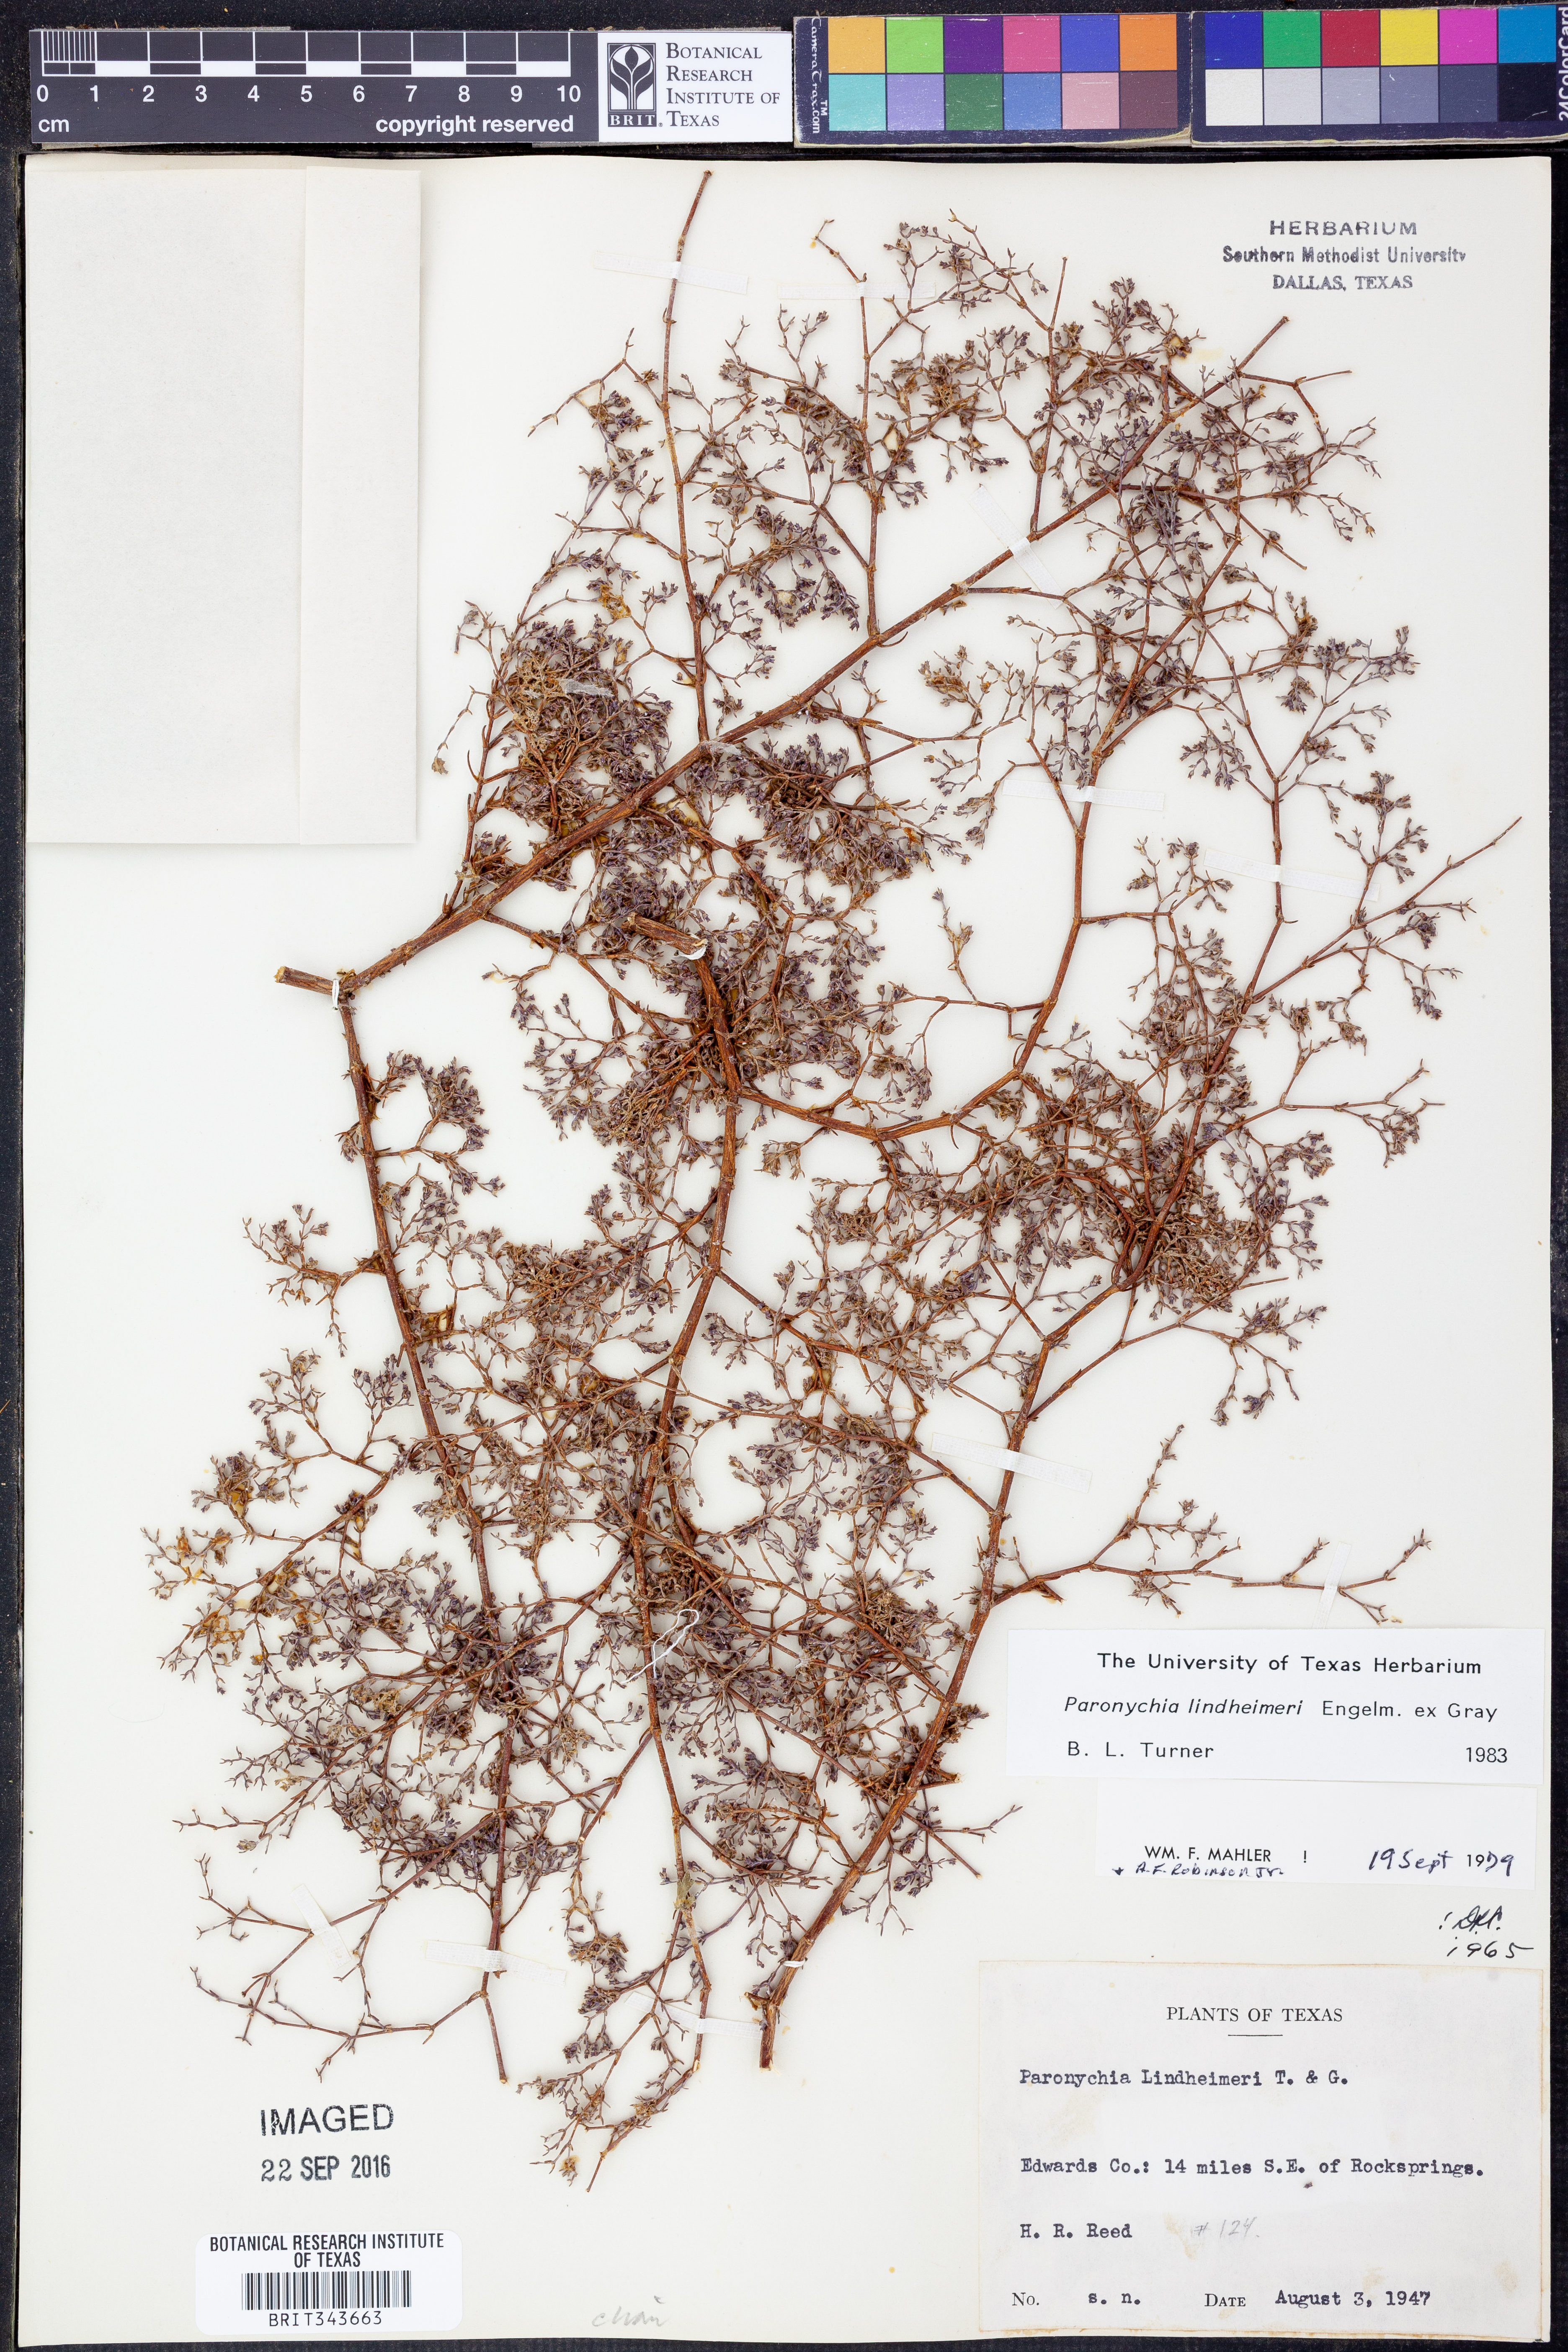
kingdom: Plantae
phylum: Tracheophyta
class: Magnoliopsida
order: Caryophyllales
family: Caryophyllaceae
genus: Paronychia
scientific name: Paronychia lindheimeri
